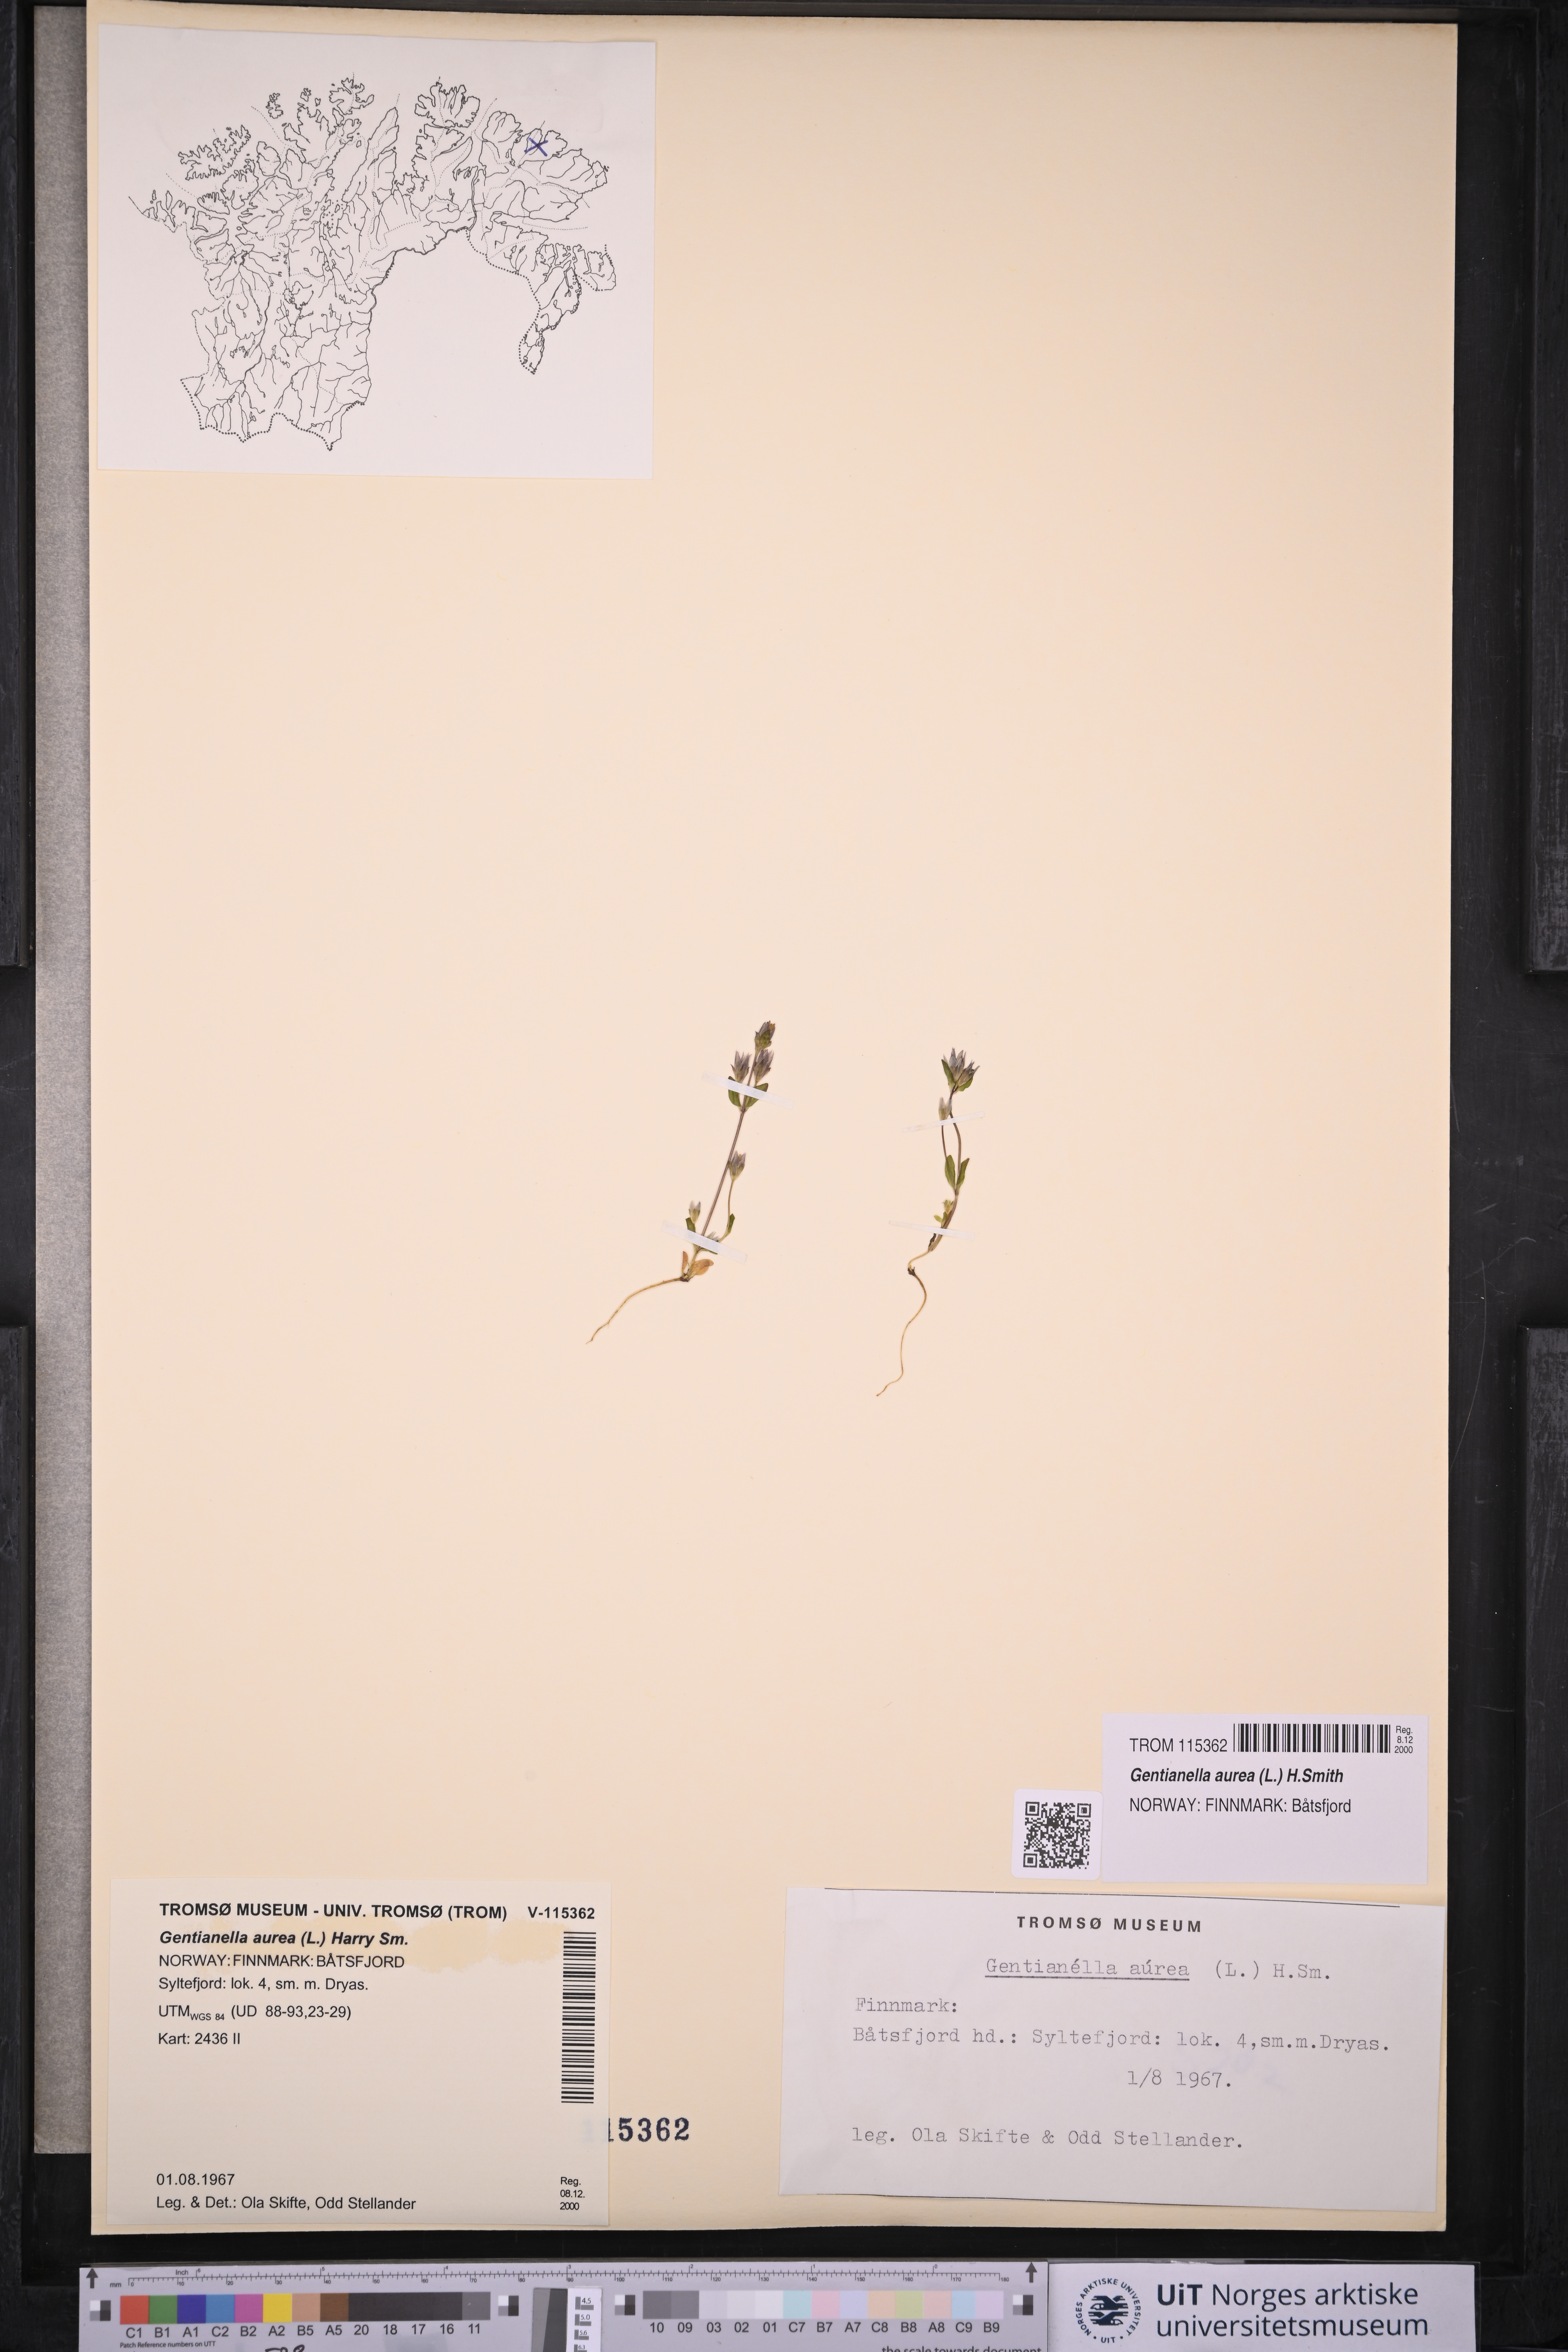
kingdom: Plantae
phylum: Tracheophyta
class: Magnoliopsida
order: Gentianales
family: Gentianaceae
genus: Gentianella
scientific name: Gentianella aurea
